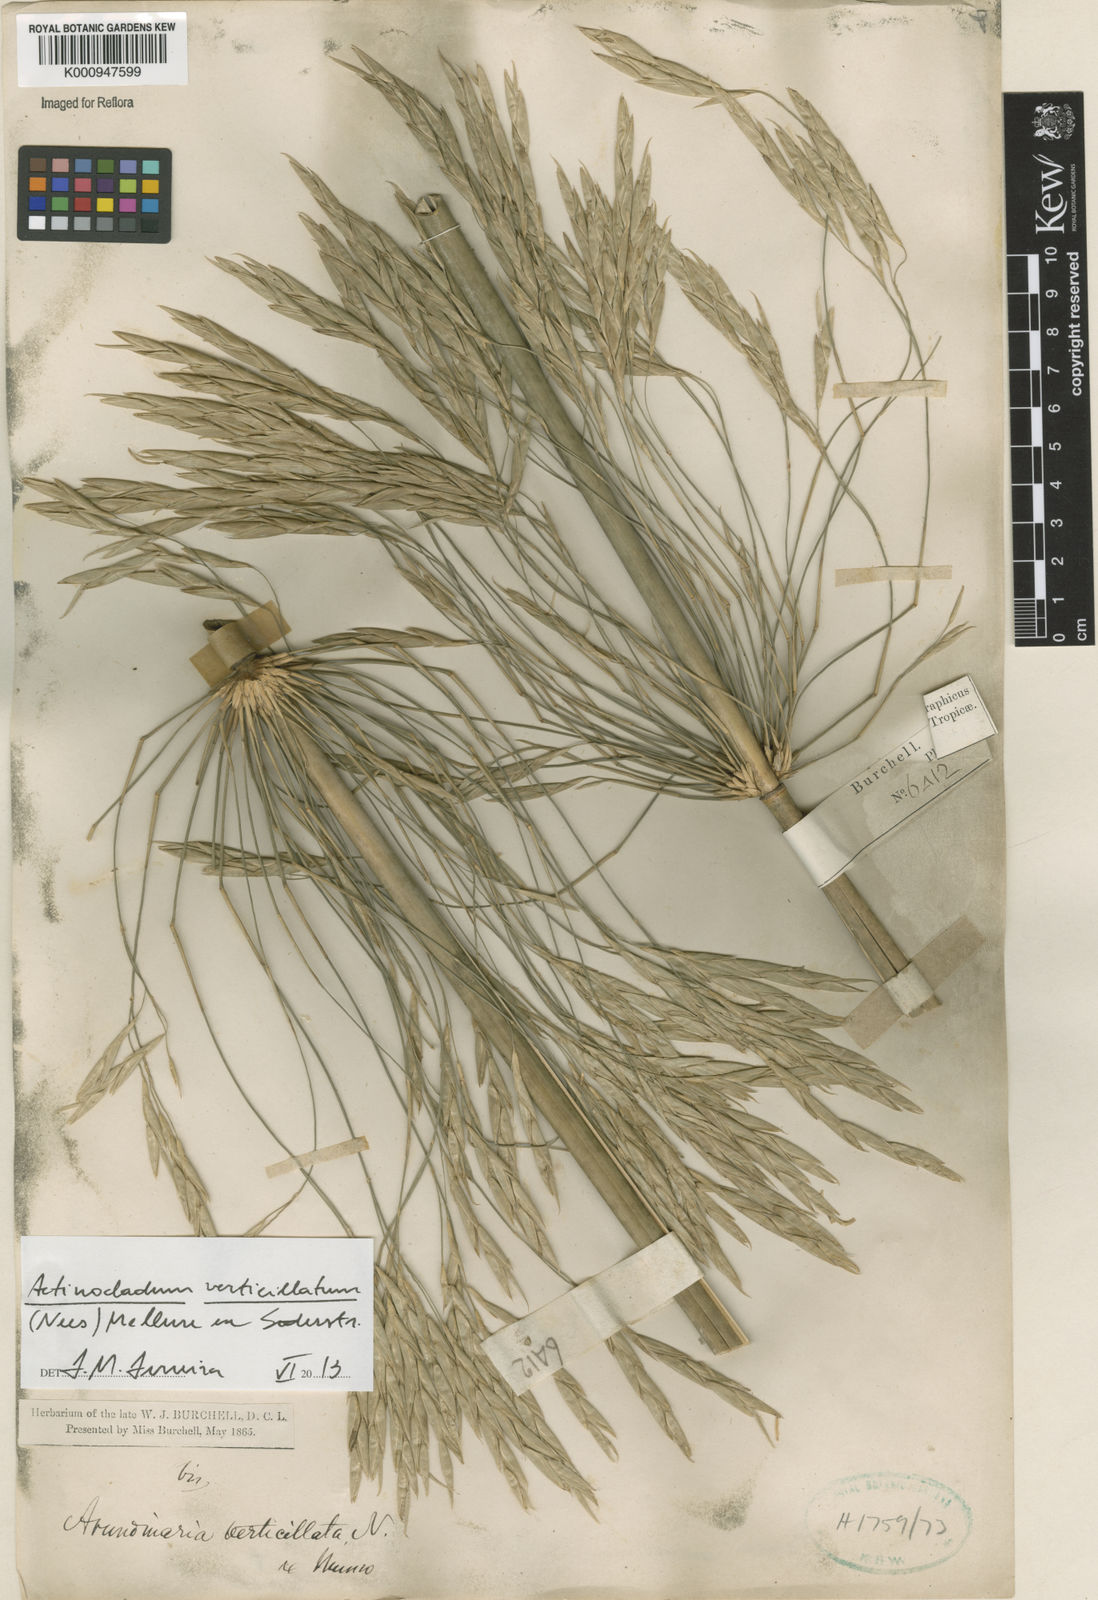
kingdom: Plantae
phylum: Tracheophyta
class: Liliopsida
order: Poales
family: Poaceae
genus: Actinocladum
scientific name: Actinocladum verticillatum
